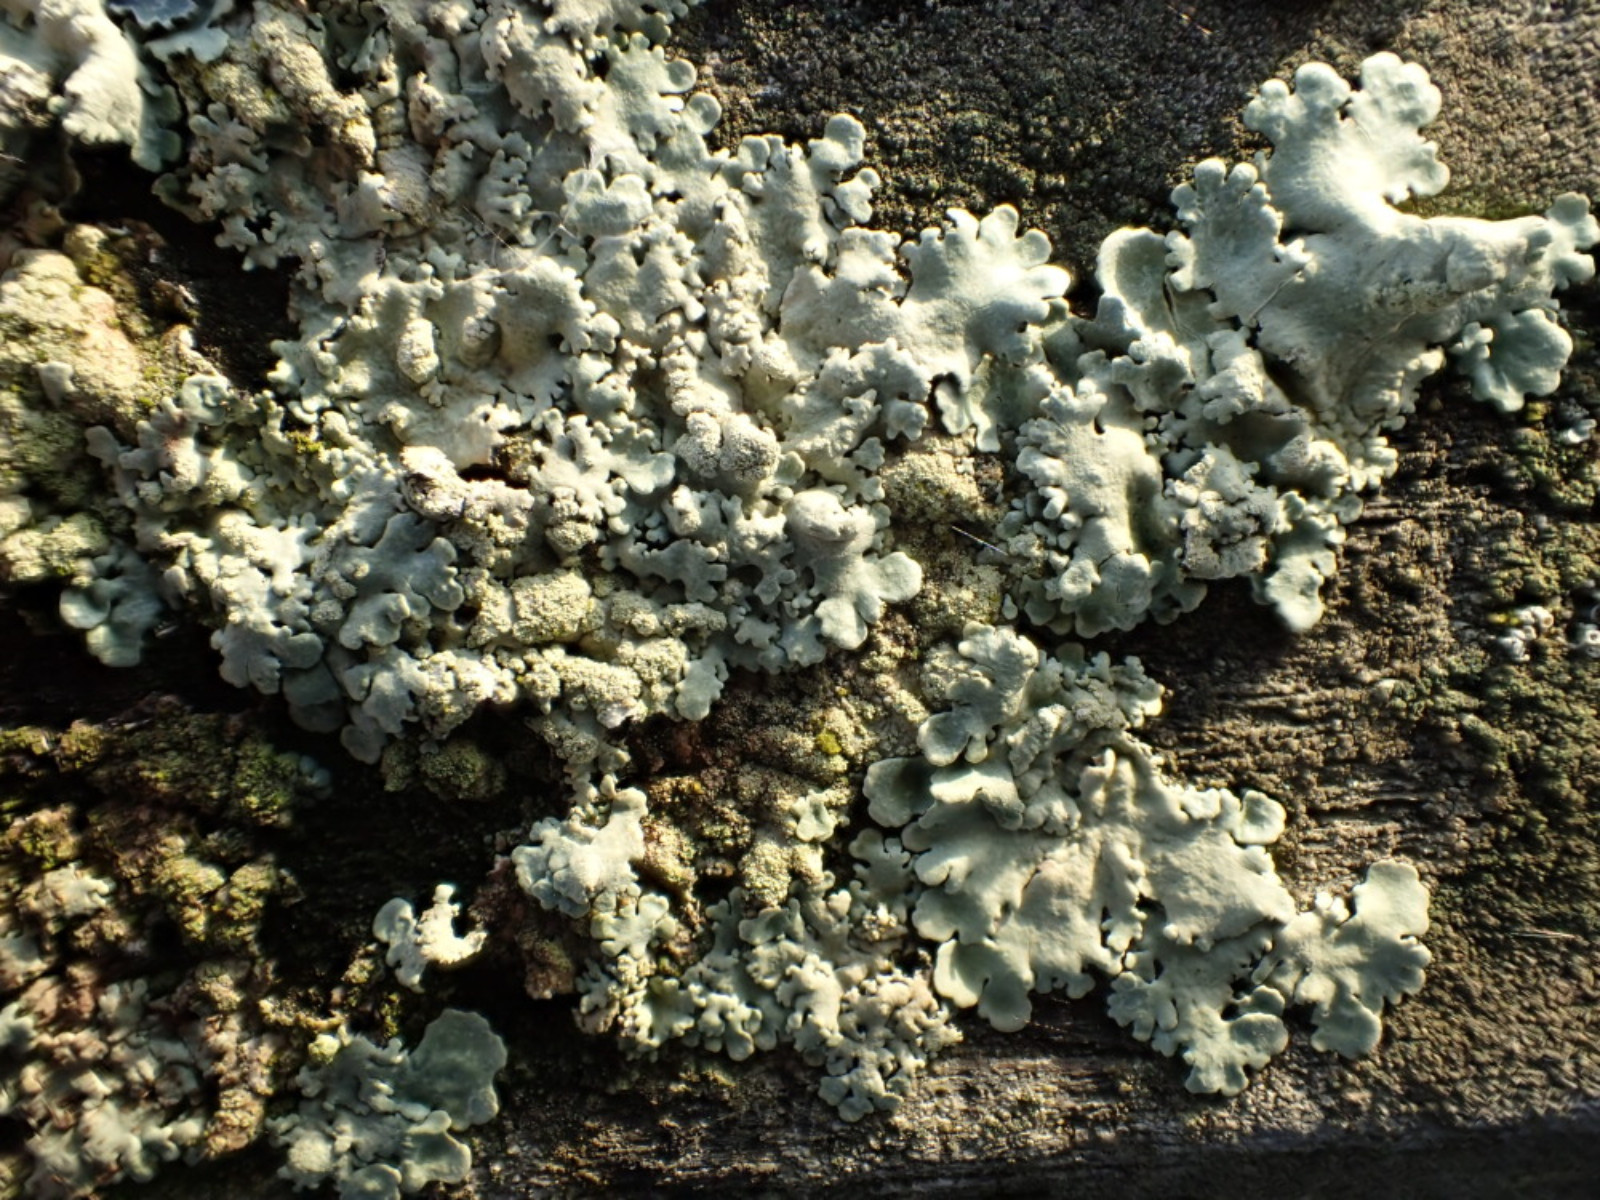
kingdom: Fungi
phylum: Ascomycota
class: Lecanoromycetes
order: Lecanorales
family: Parmeliaceae
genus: Flavoparmelia
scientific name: Flavoparmelia soredians
